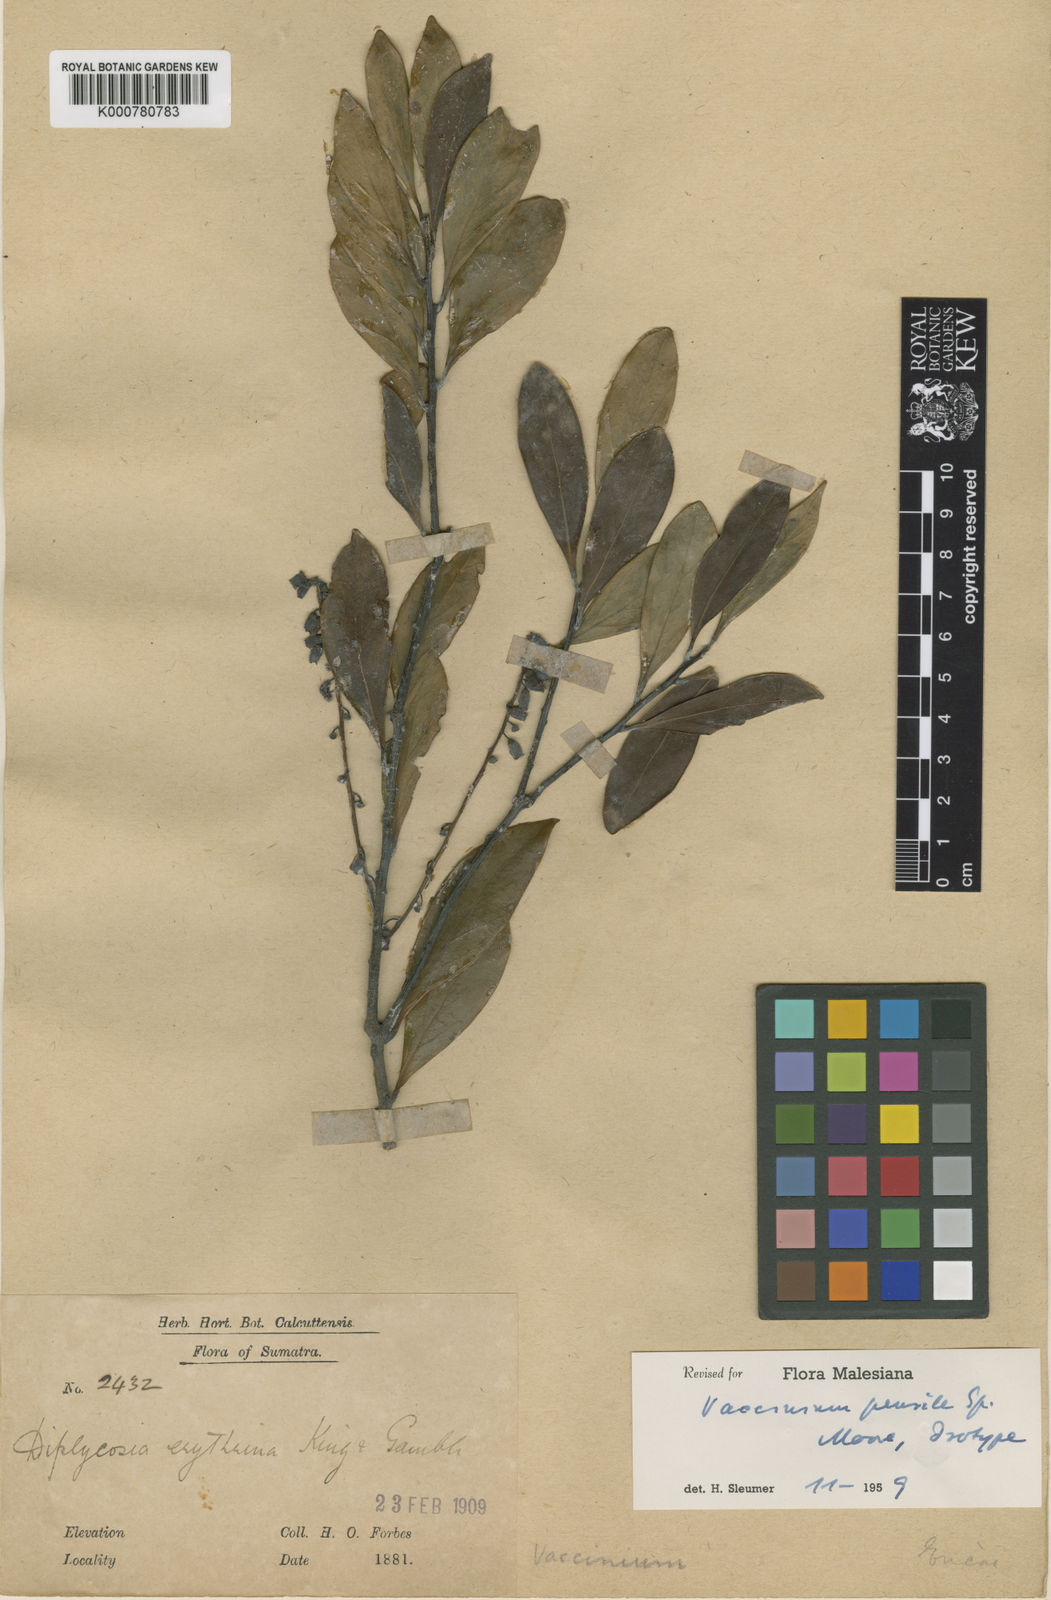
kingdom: Plantae
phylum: Tracheophyta
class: Magnoliopsida
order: Ericales
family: Ericaceae
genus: Vaccinium
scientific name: Vaccinium laurifolium
